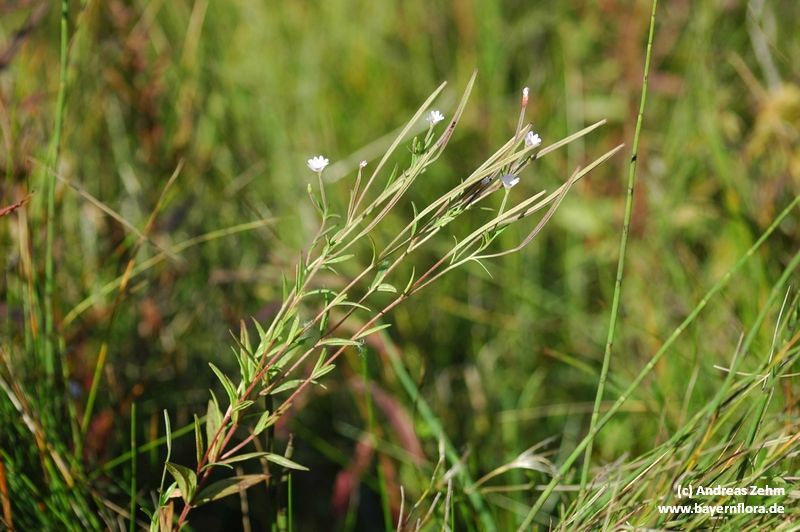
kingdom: Plantae
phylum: Tracheophyta
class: Magnoliopsida
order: Myrtales
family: Onagraceae
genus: Epilobium
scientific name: Epilobium palustre
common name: Marsh willowherb
